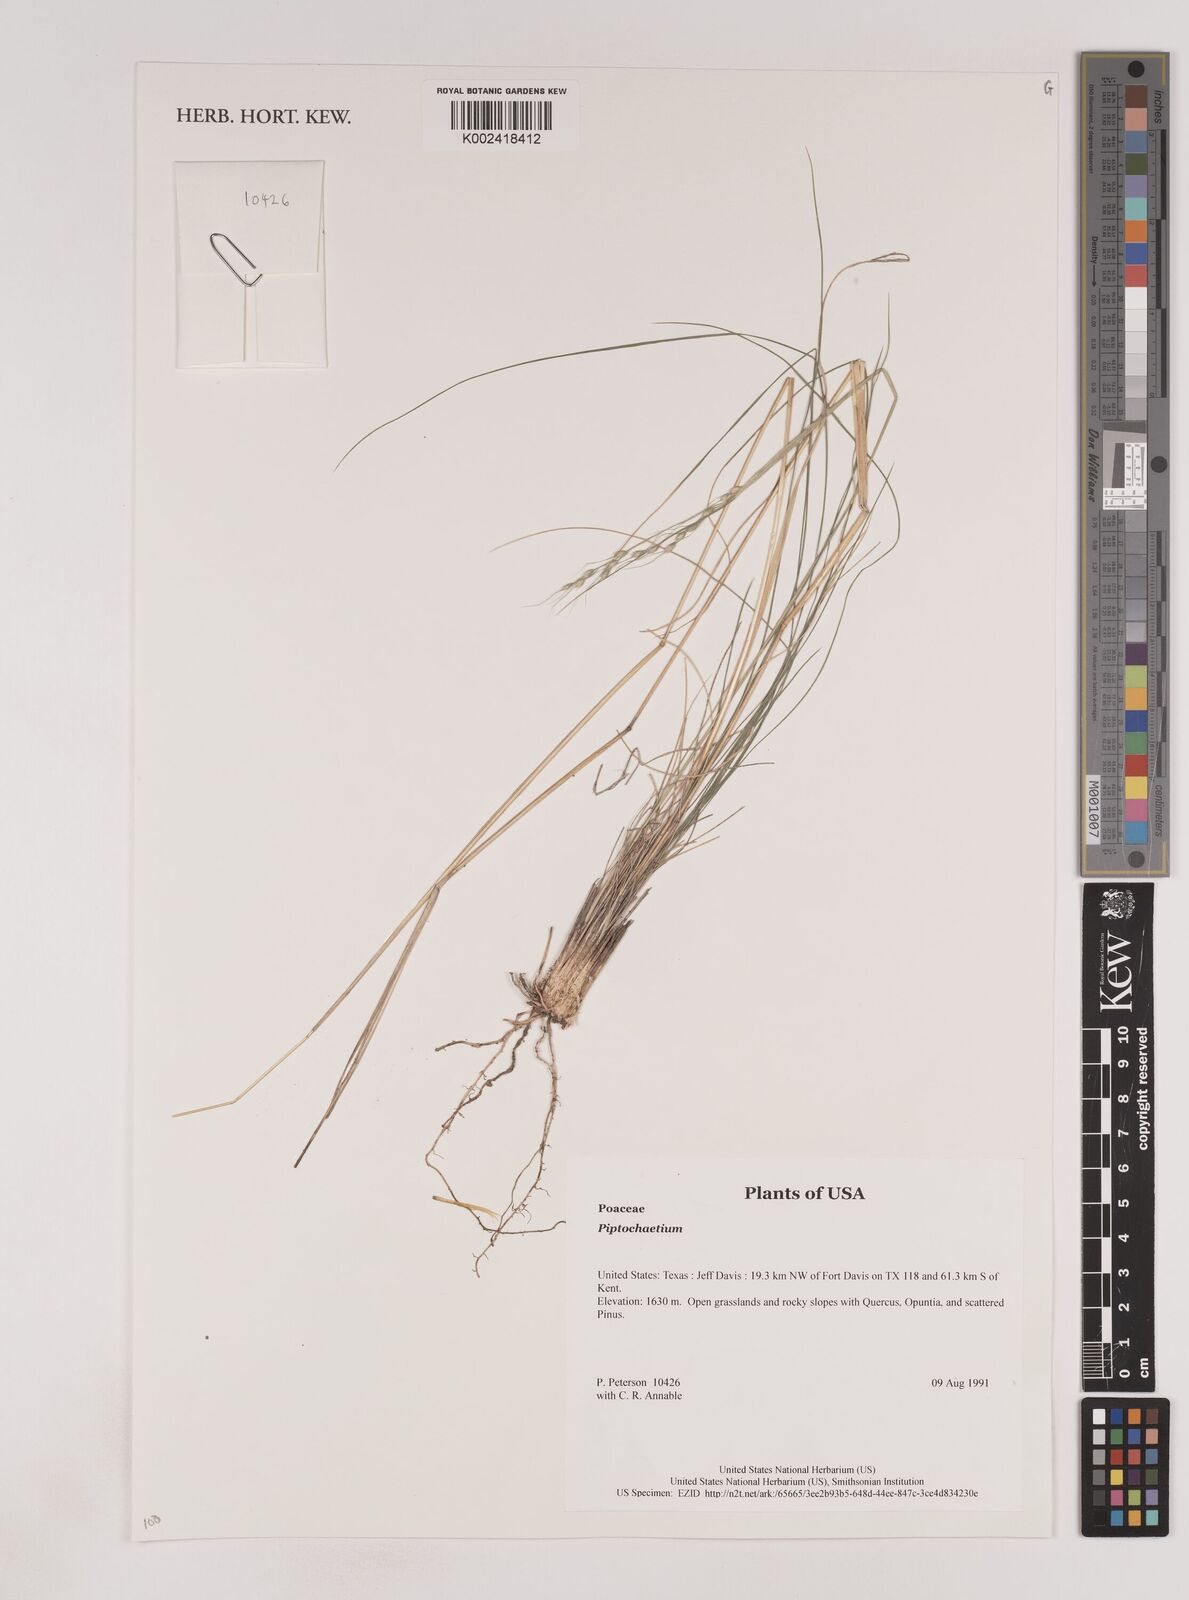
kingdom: Plantae
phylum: Tracheophyta
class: Liliopsida
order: Poales
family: Poaceae
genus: Piptochaetium
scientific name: Piptochaetium
